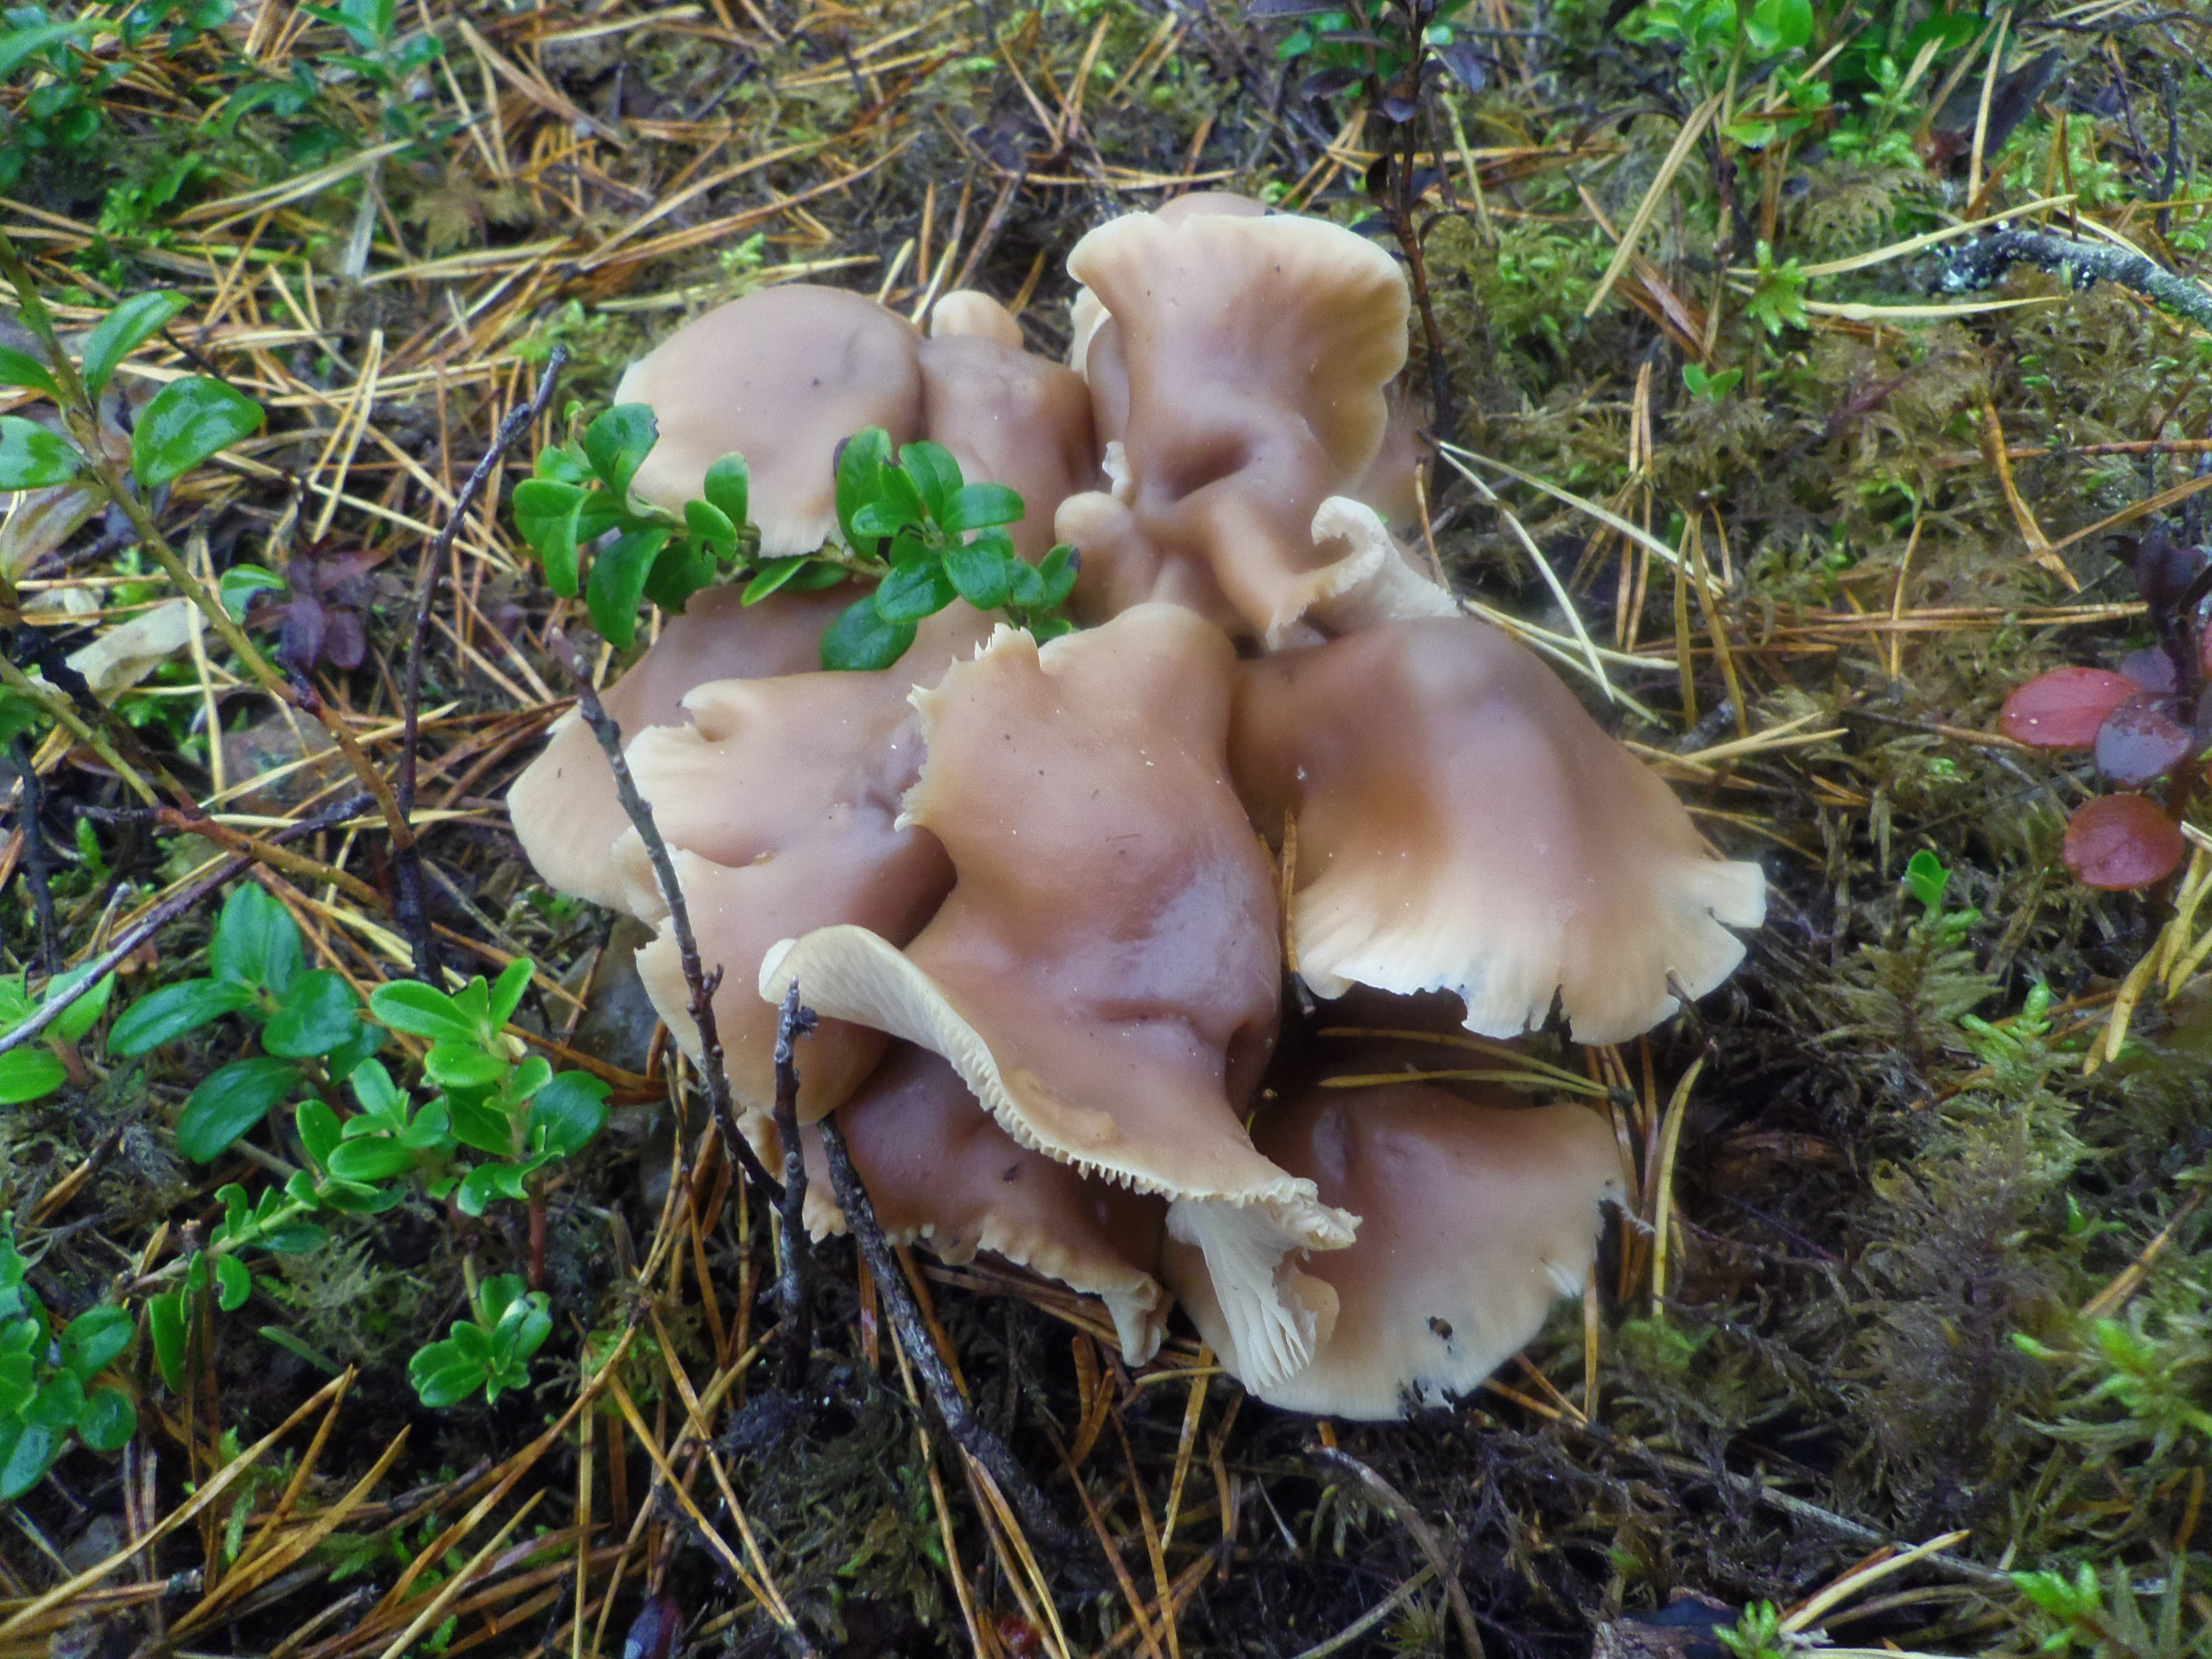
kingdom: Fungi
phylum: Basidiomycota
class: Agaricomycetes
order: Agaricales
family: Omphalotaceae
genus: Connopus
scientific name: Connopus acervatus
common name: Cluster cap
